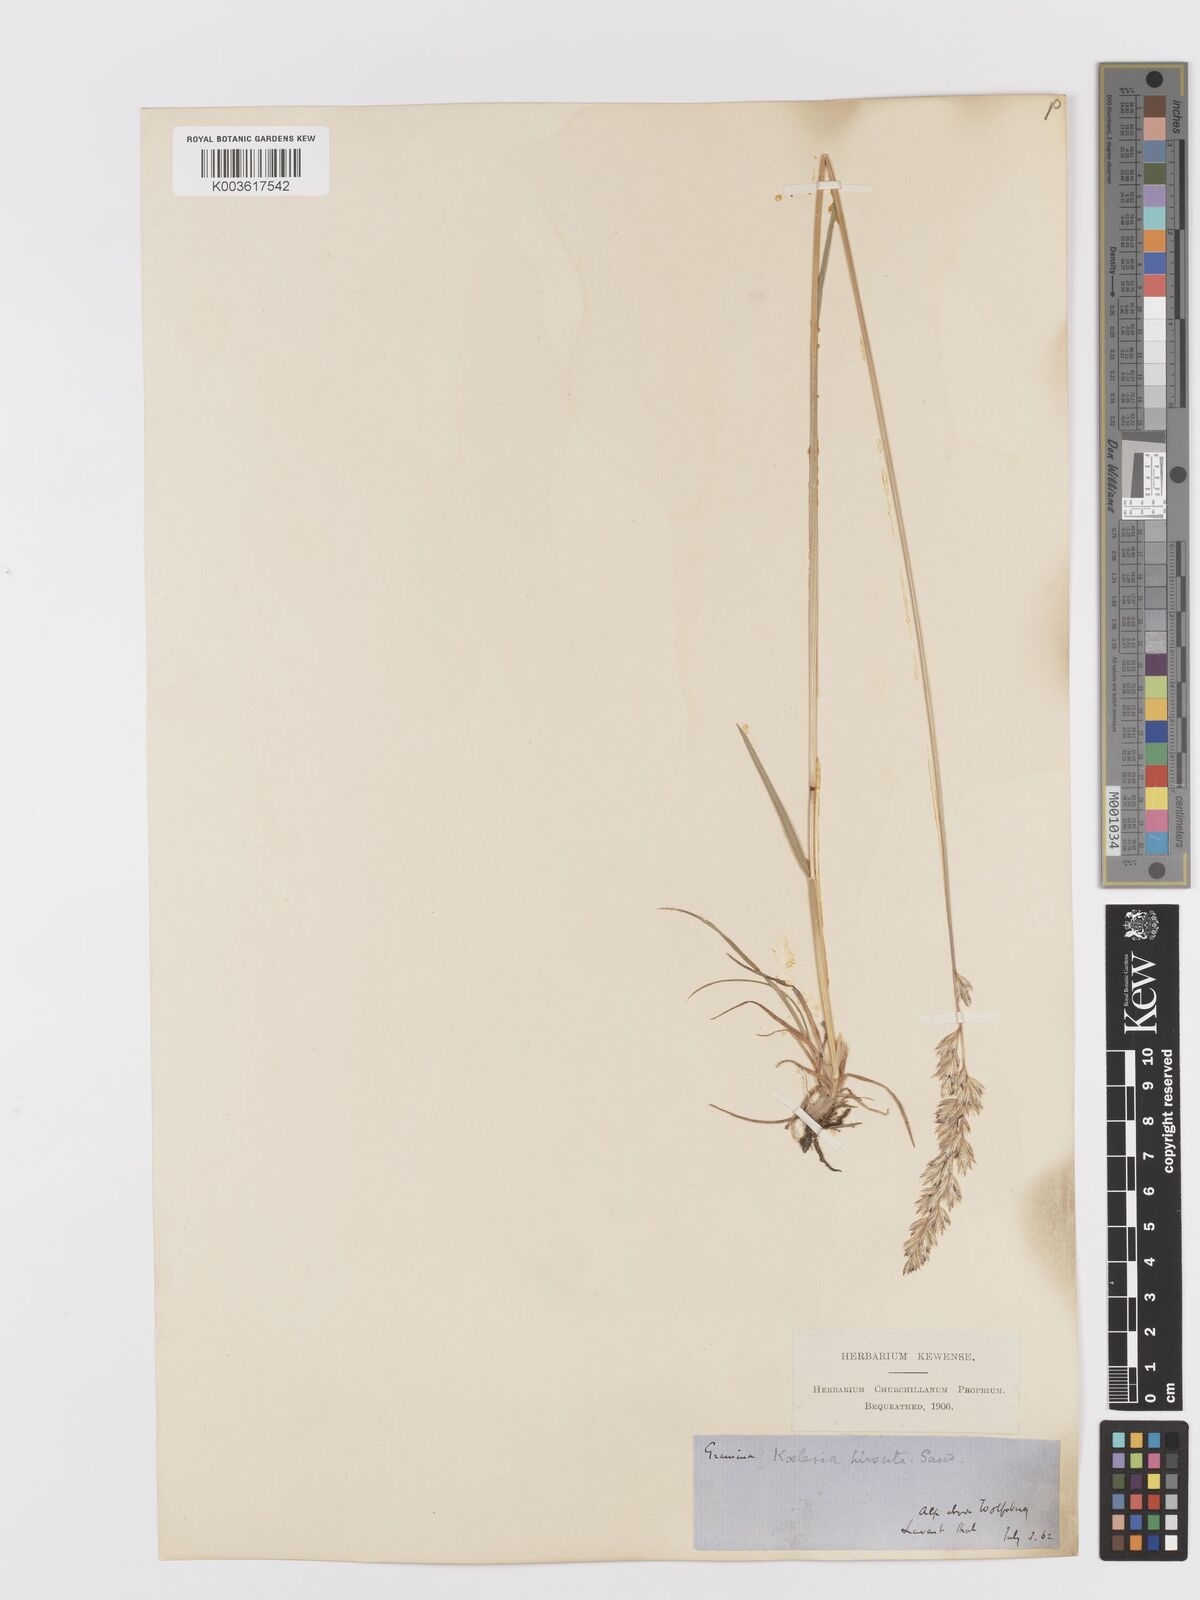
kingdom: Plantae
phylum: Tracheophyta
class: Liliopsida
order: Poales
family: Poaceae
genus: Koeleria
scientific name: Koeleria
